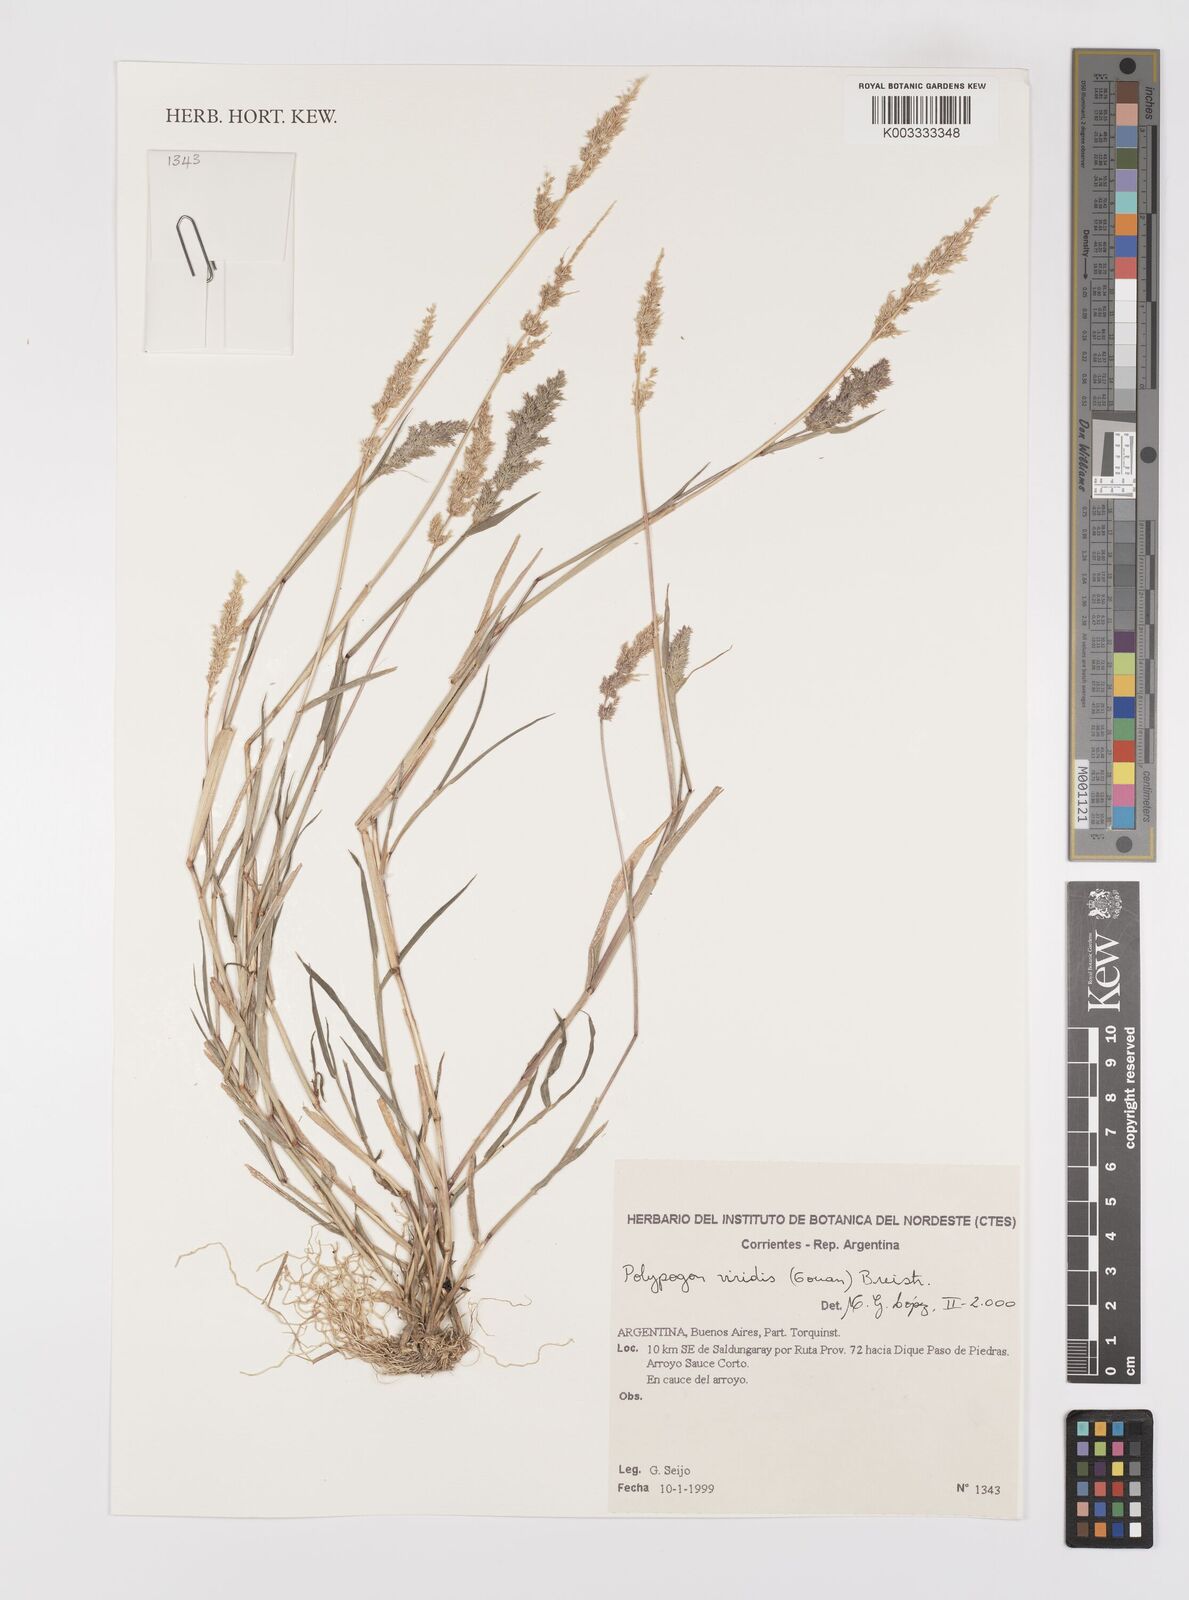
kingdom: Plantae
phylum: Tracheophyta
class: Liliopsida
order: Poales
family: Poaceae
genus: Polypogon
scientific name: Polypogon viridis
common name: Water bent
